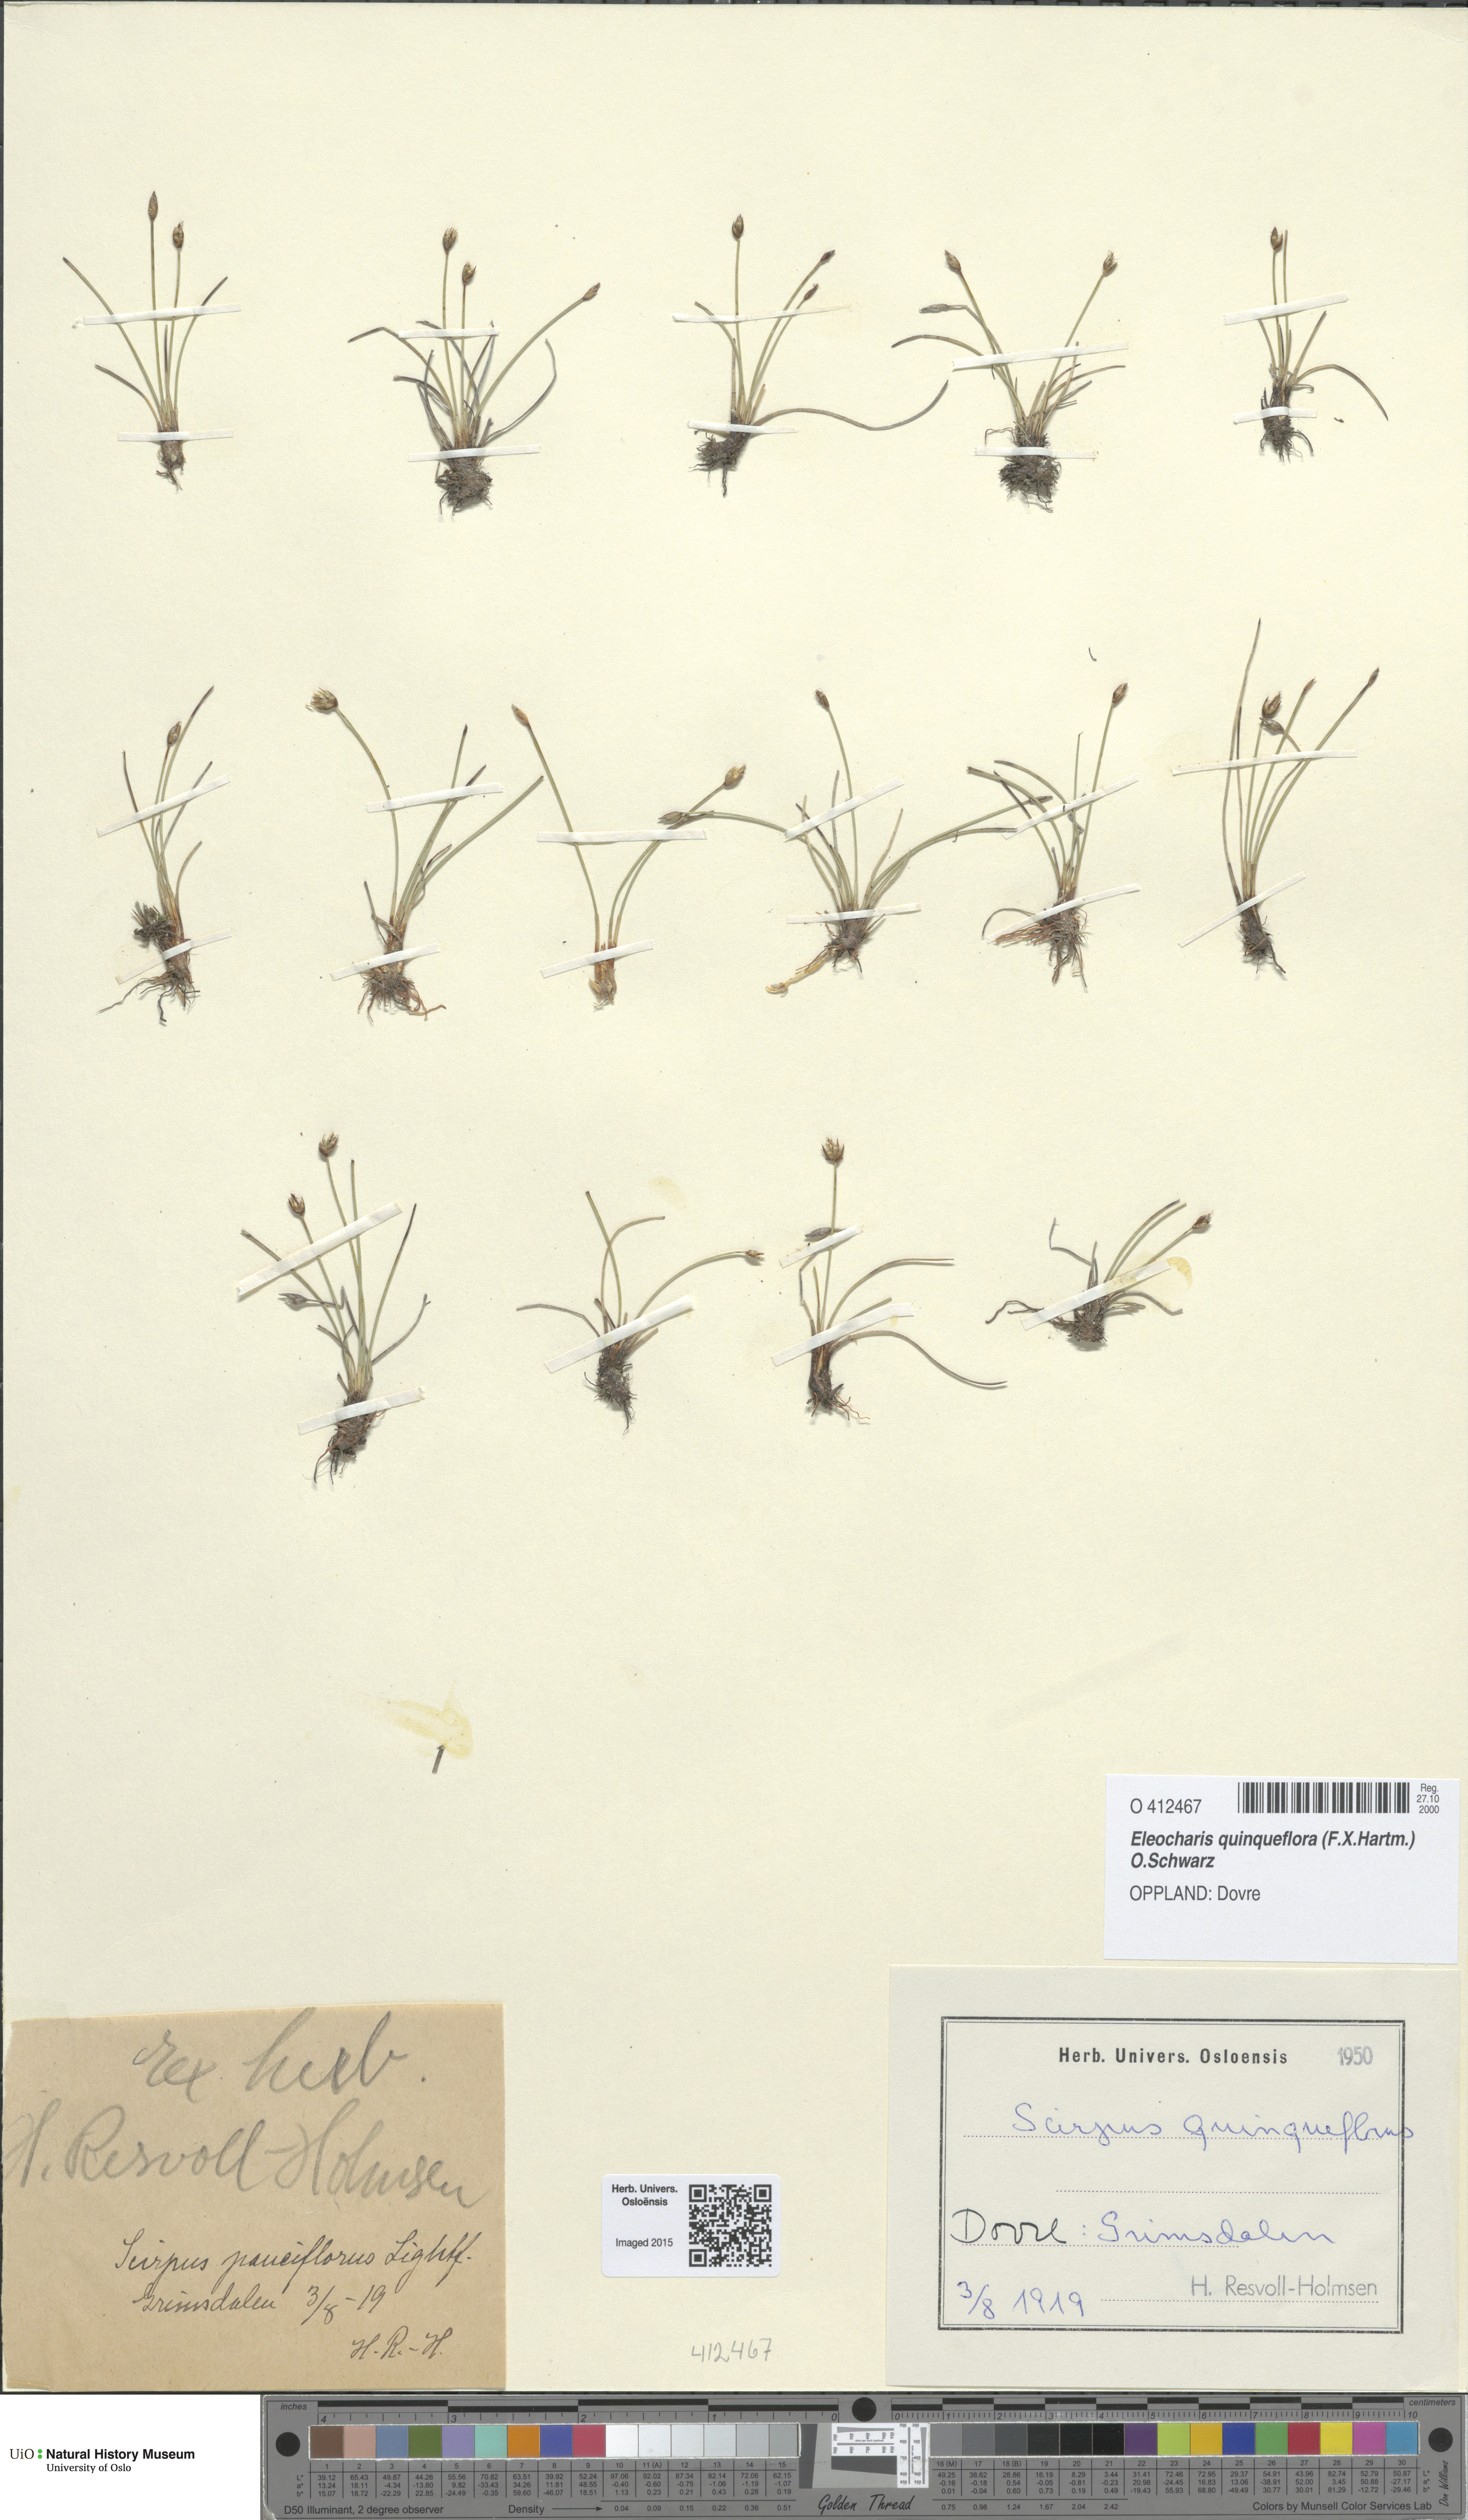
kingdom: Plantae
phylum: Tracheophyta
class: Liliopsida
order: Poales
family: Cyperaceae
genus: Eleocharis
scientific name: Eleocharis quinqueflora
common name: Few-flowered spike-rush
